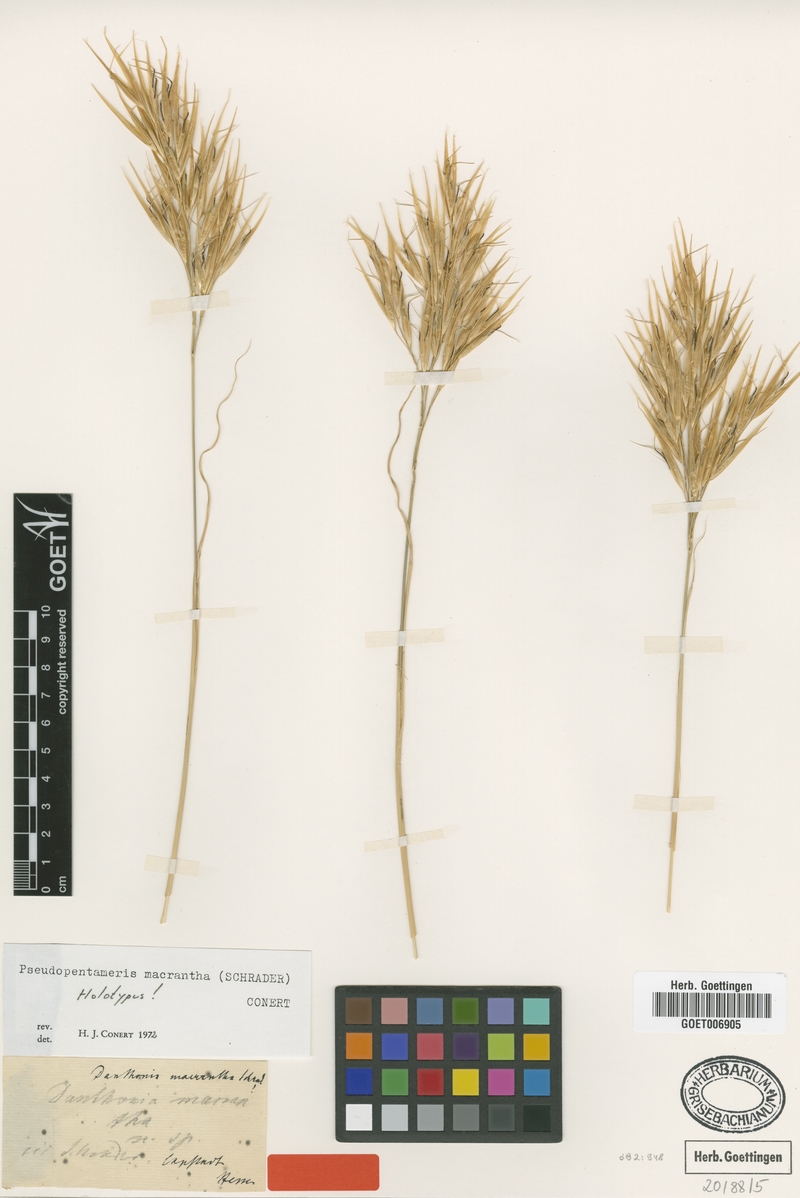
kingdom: Plantae
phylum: Tracheophyta
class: Liliopsida
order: Poales
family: Poaceae
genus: Pseudopentameris
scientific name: Pseudopentameris macrantha
